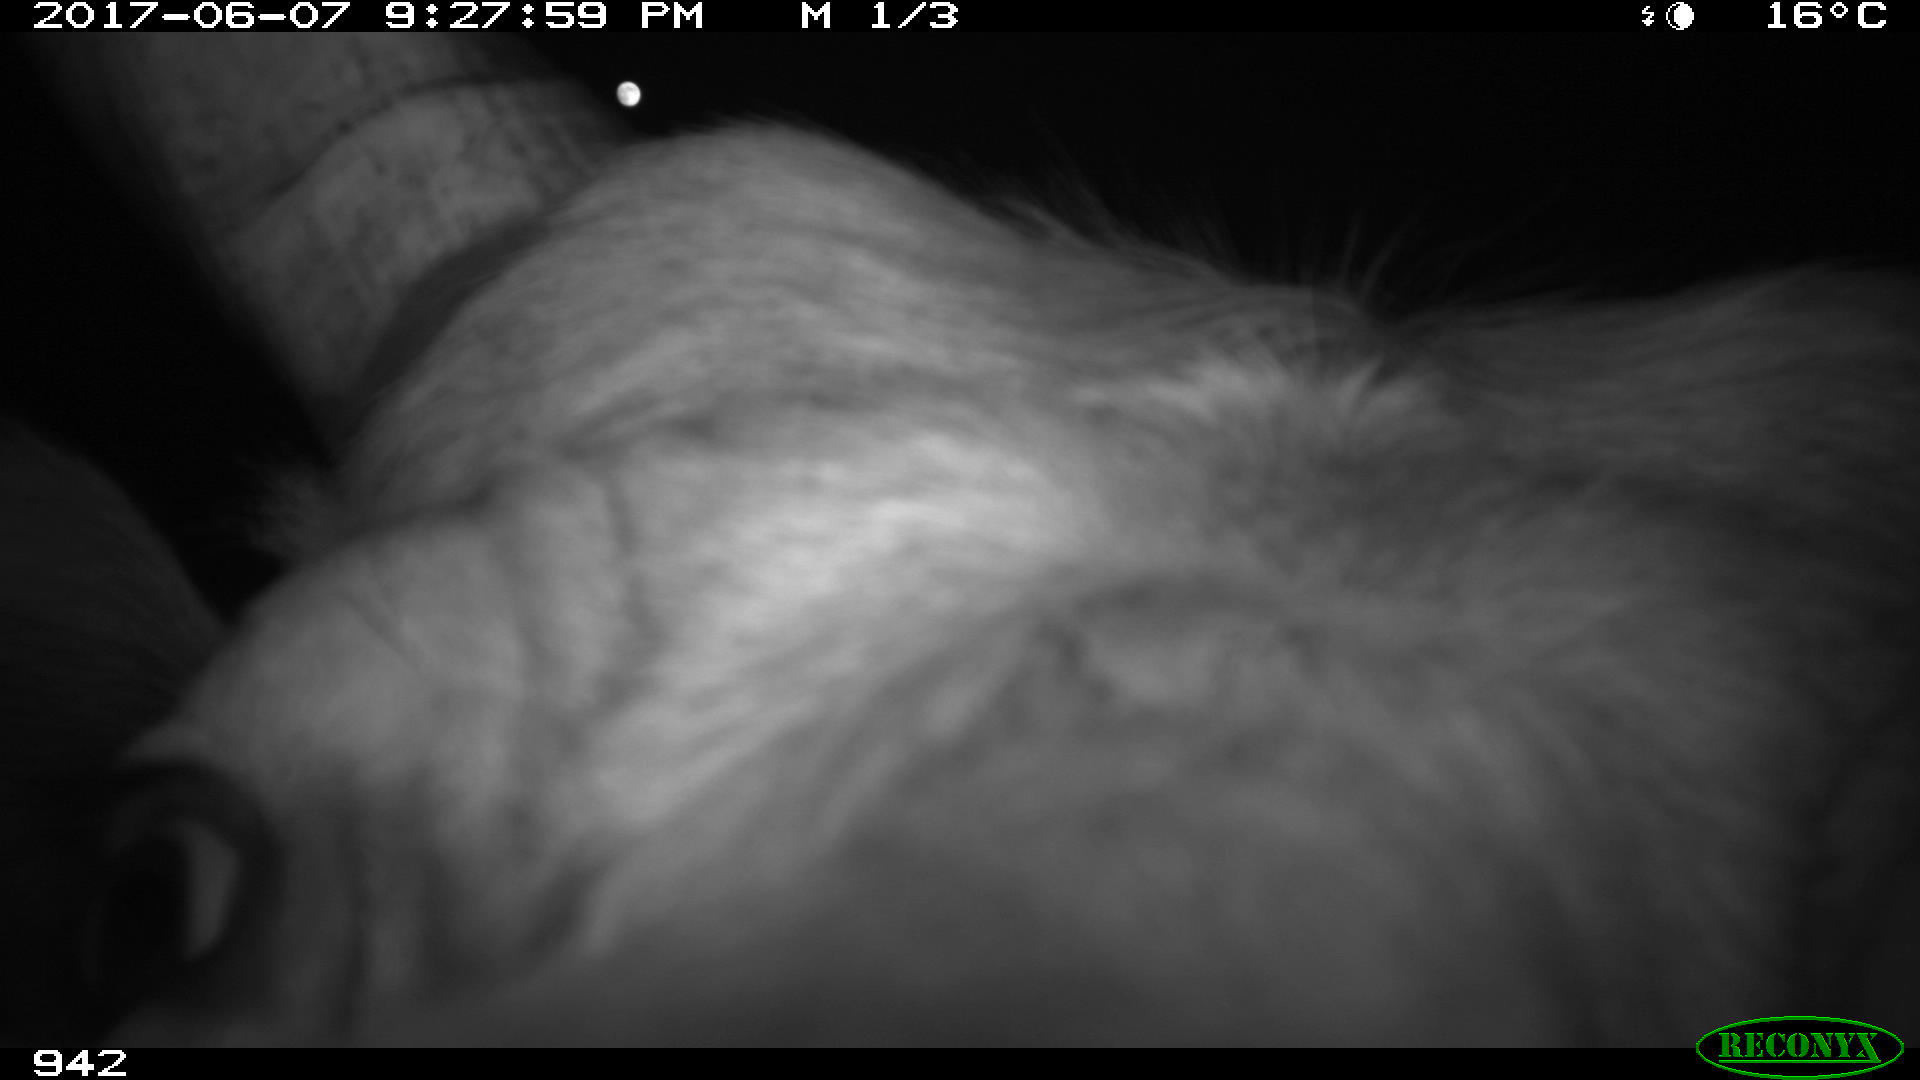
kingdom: Animalia
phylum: Chordata
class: Mammalia
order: Artiodactyla
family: Bovidae
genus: Bos
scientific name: Bos taurus
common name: Domesticated cattle
